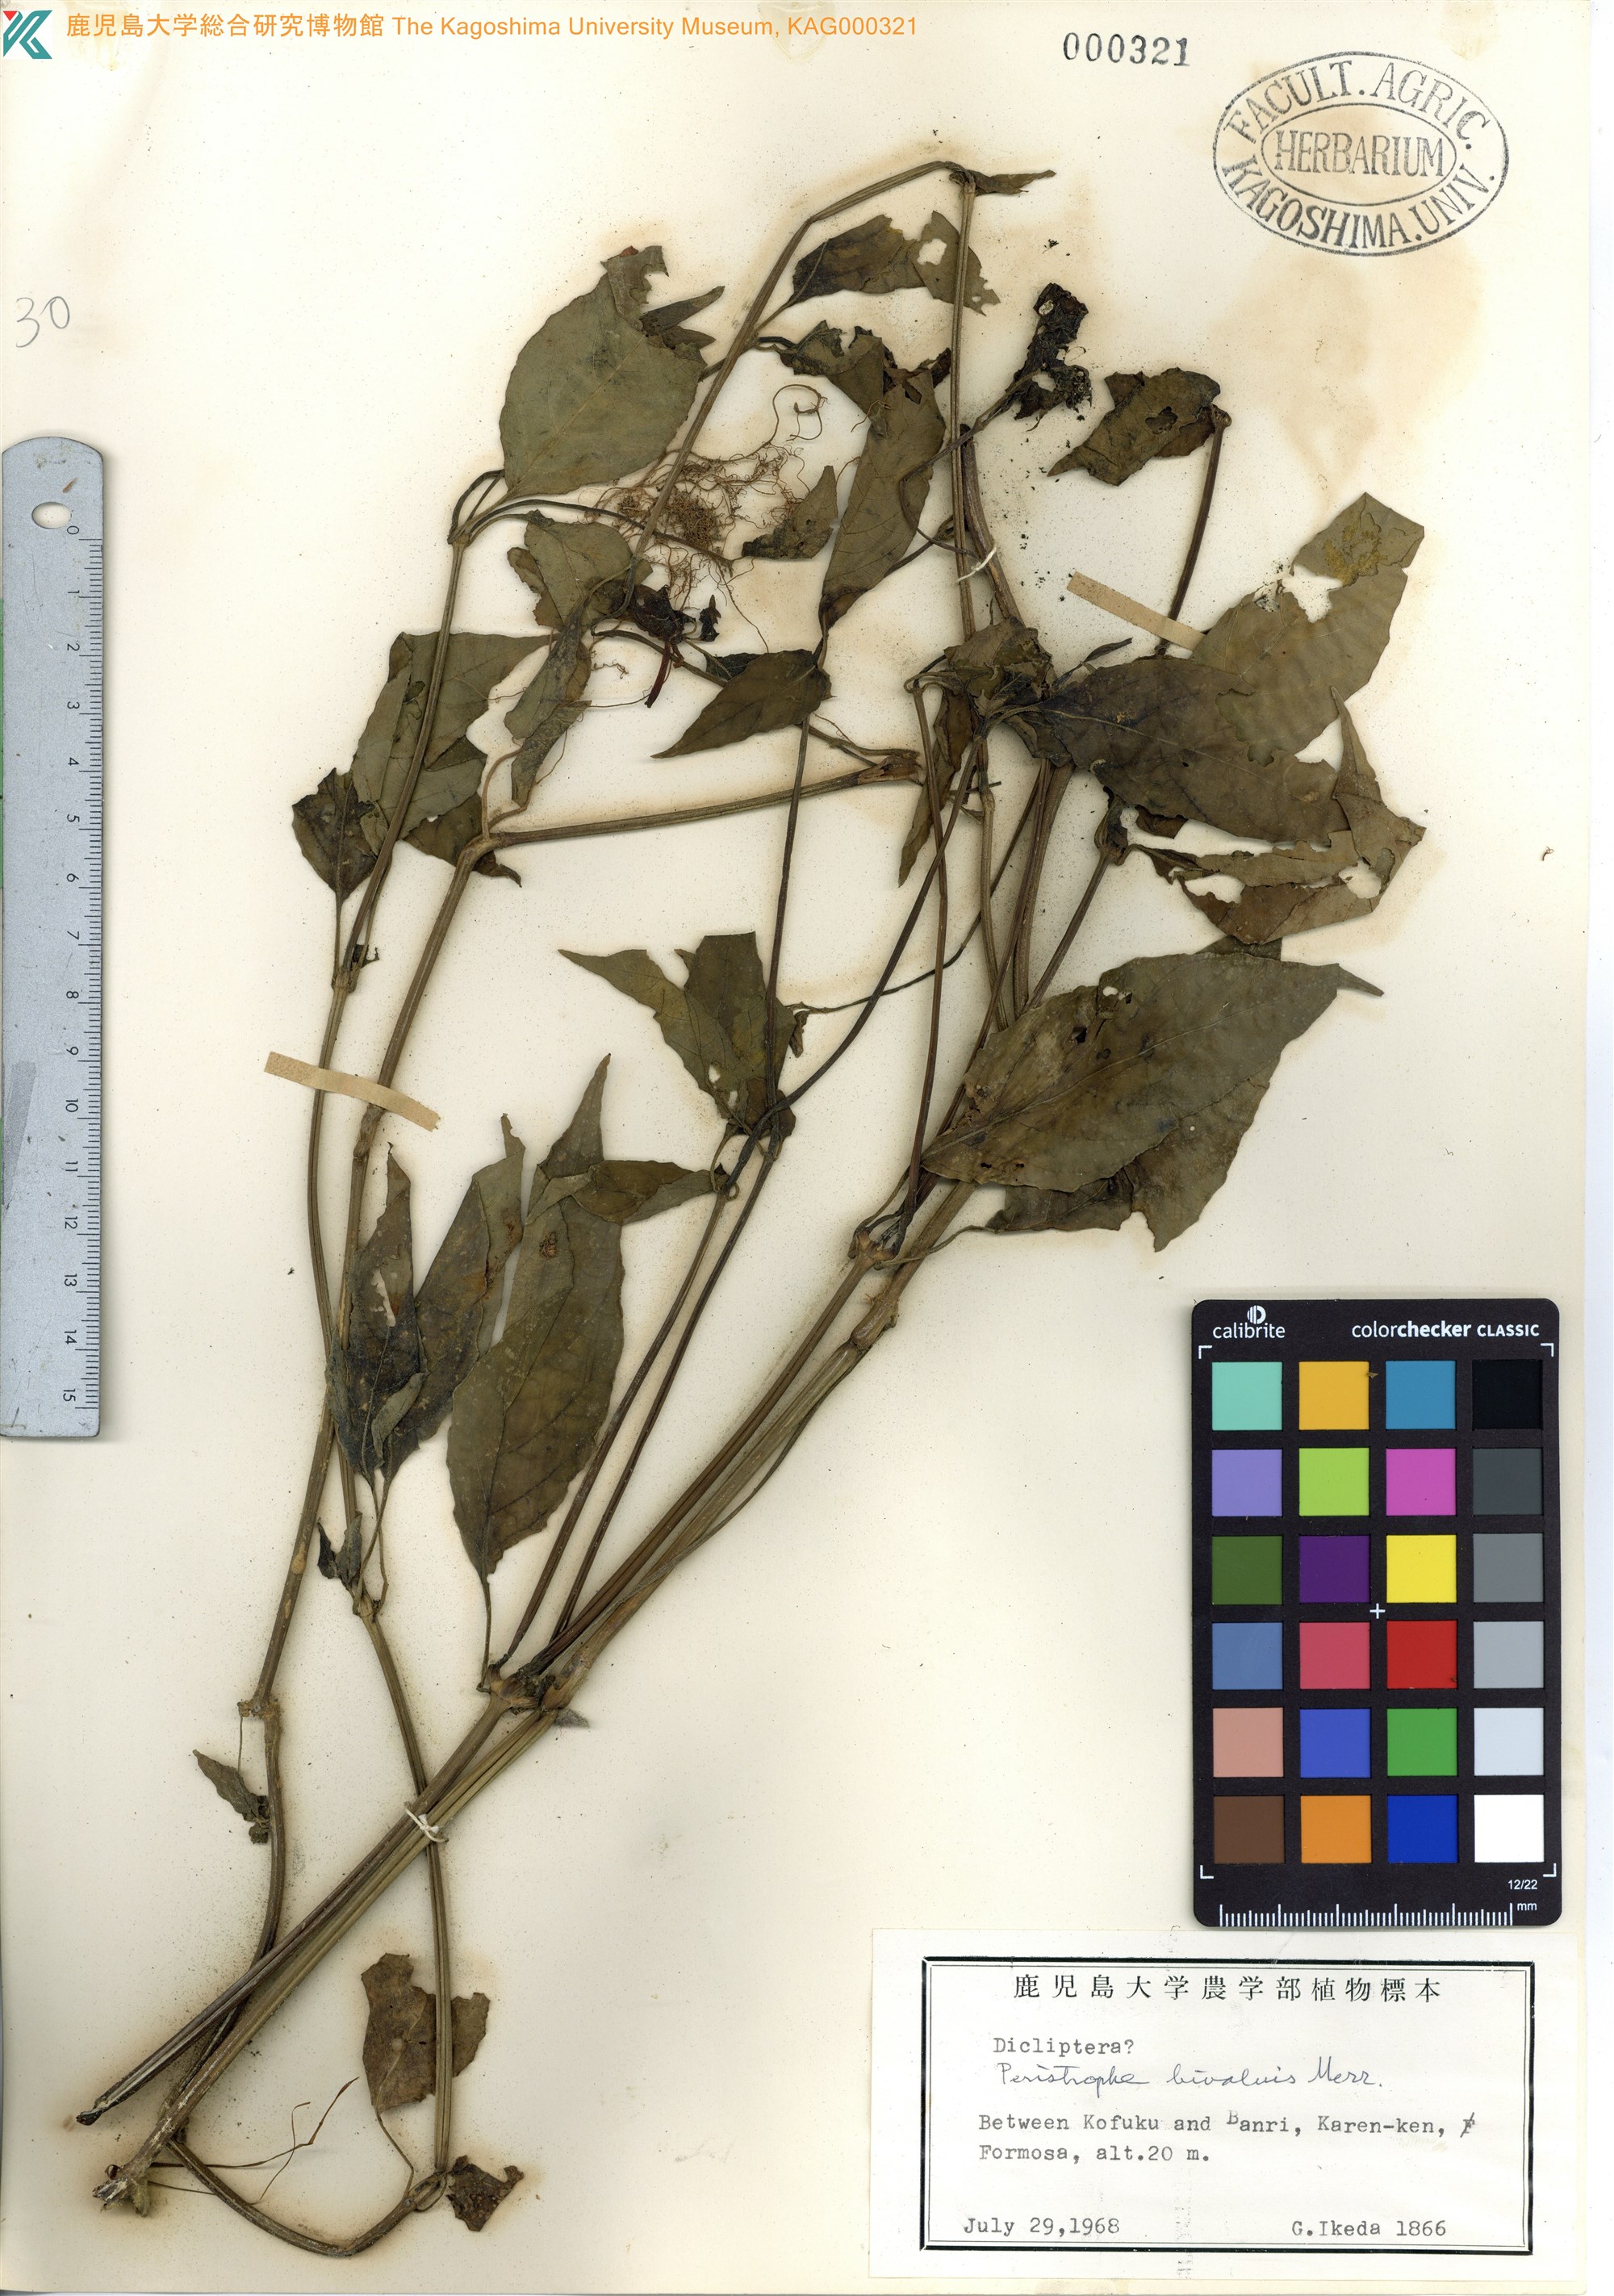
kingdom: Plantae
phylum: Tracheophyta
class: Magnoliopsida
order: Lamiales
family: Acanthaceae
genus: Dicliptera
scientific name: Dicliptera tinctoria
